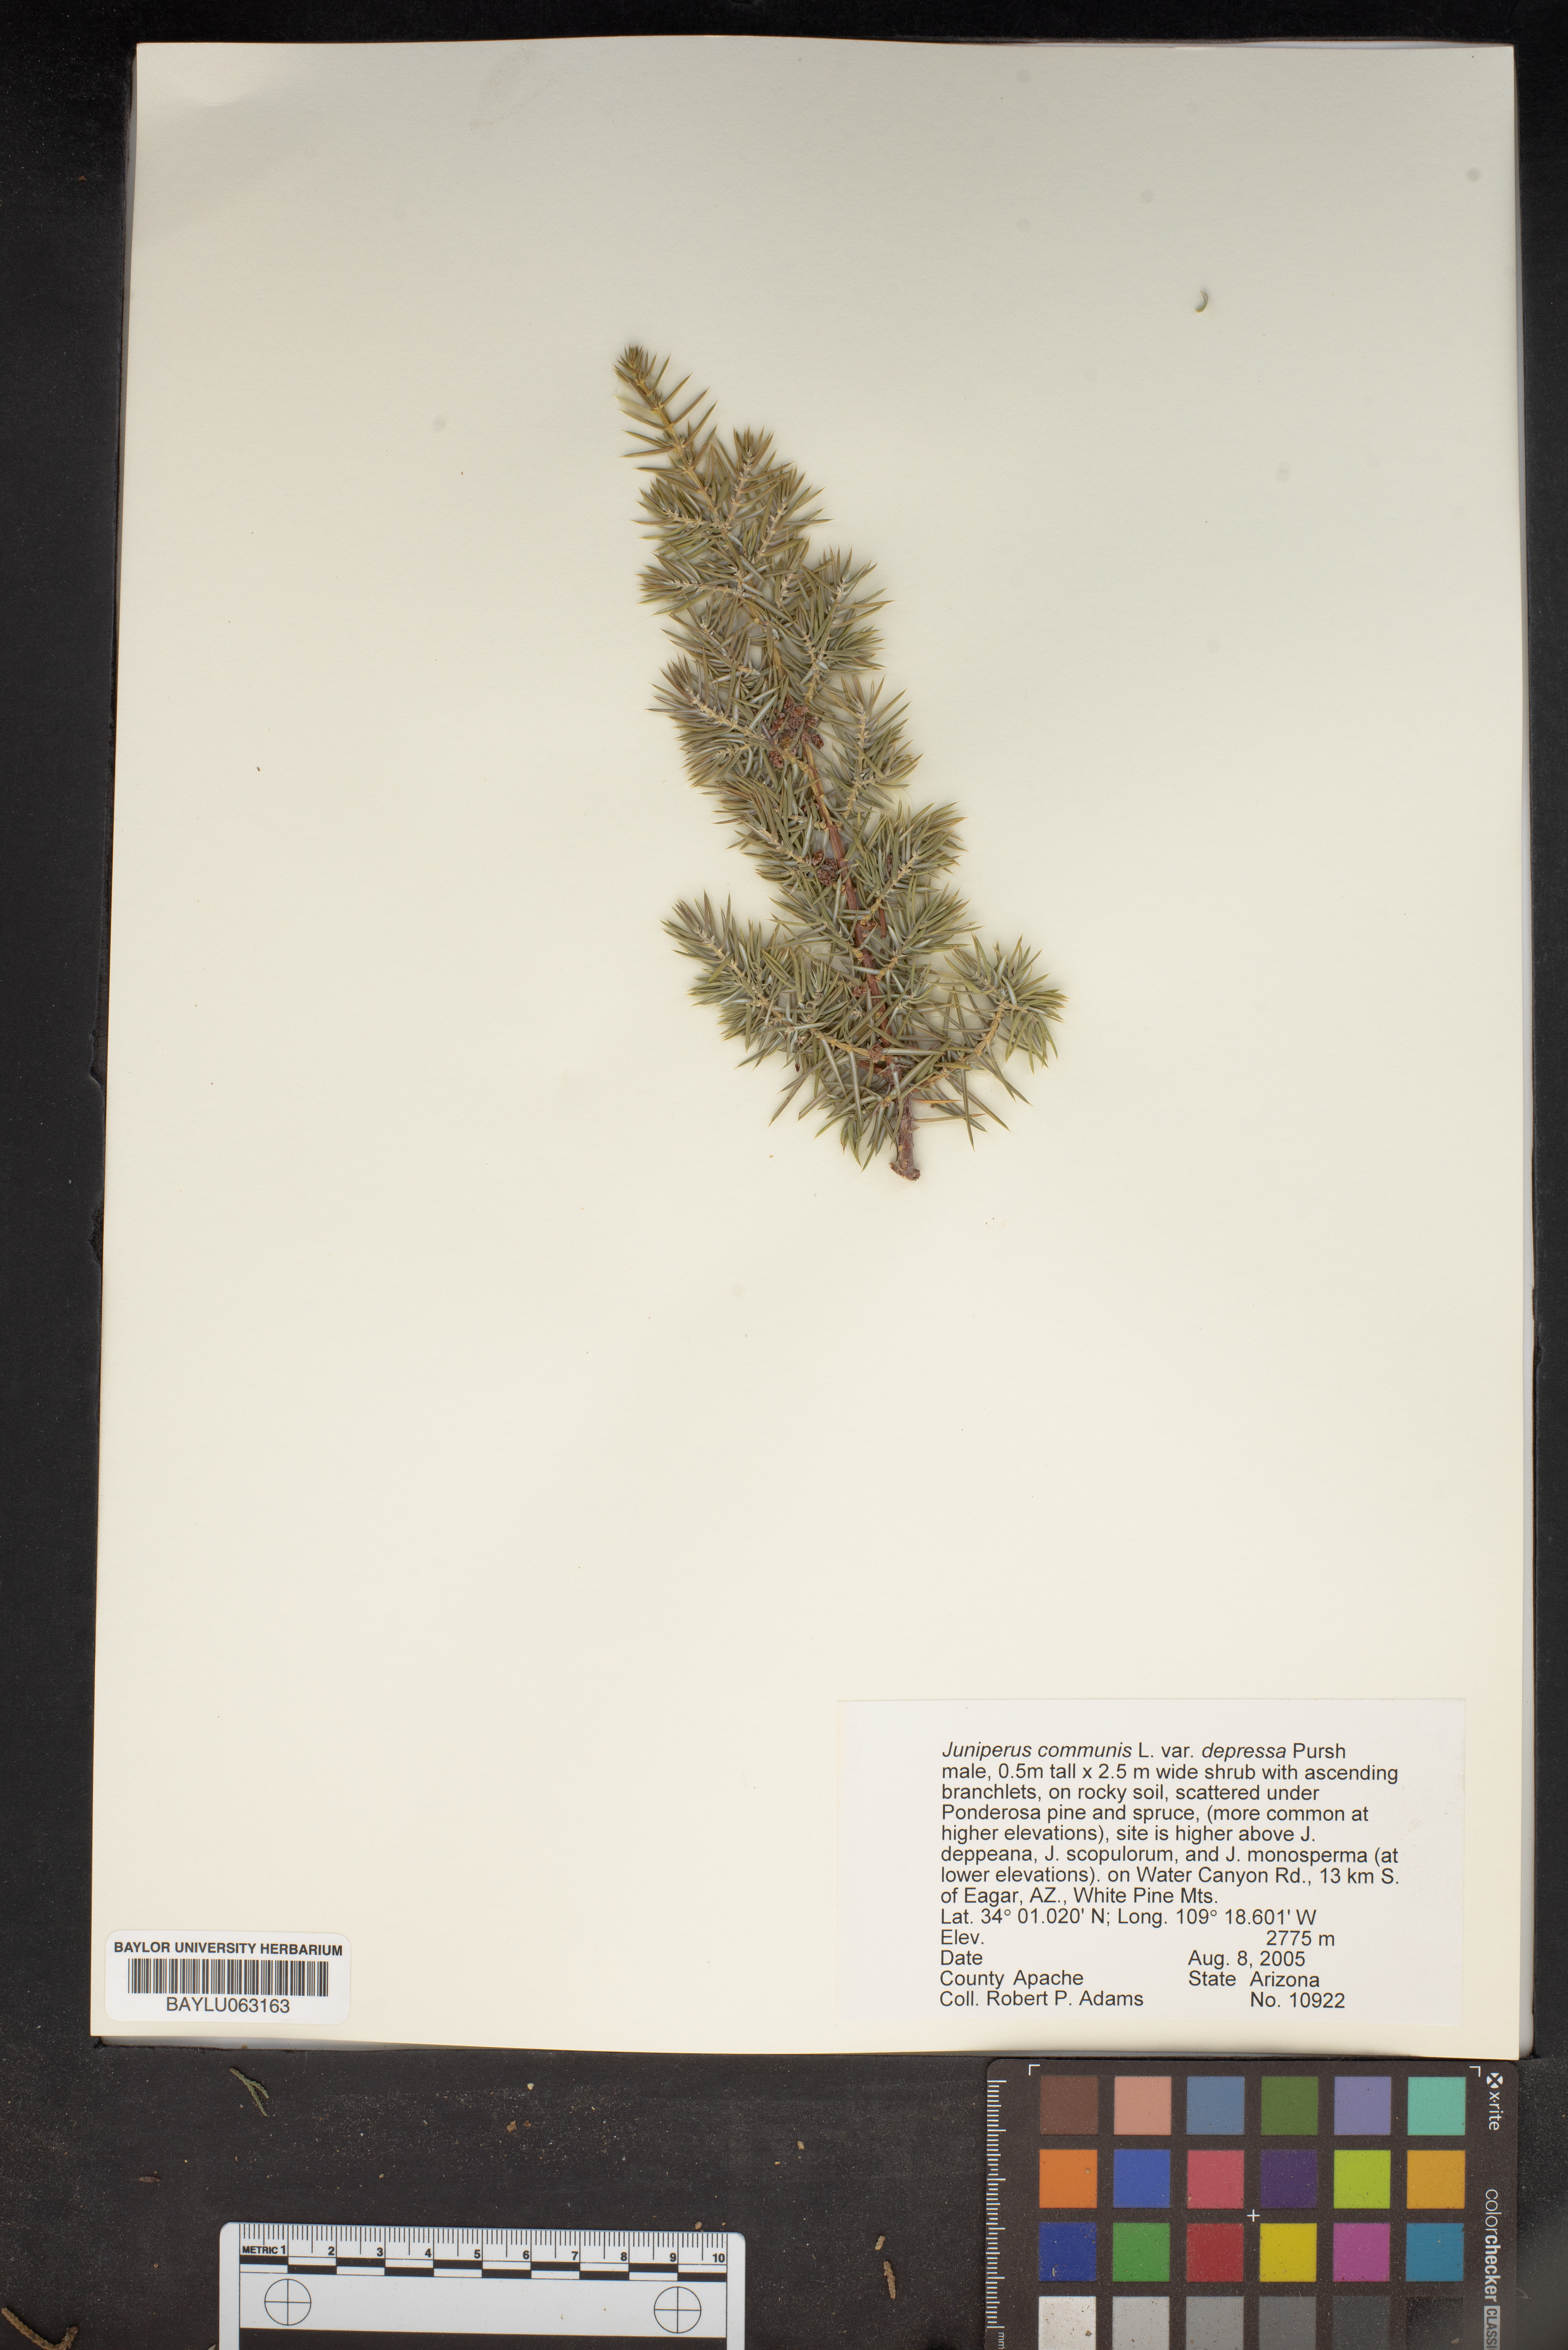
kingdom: Plantae
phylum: Tracheophyta
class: Pinopsida
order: Pinales
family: Cupressaceae
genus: Juniperus
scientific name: Juniperus communis
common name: Common juniper
